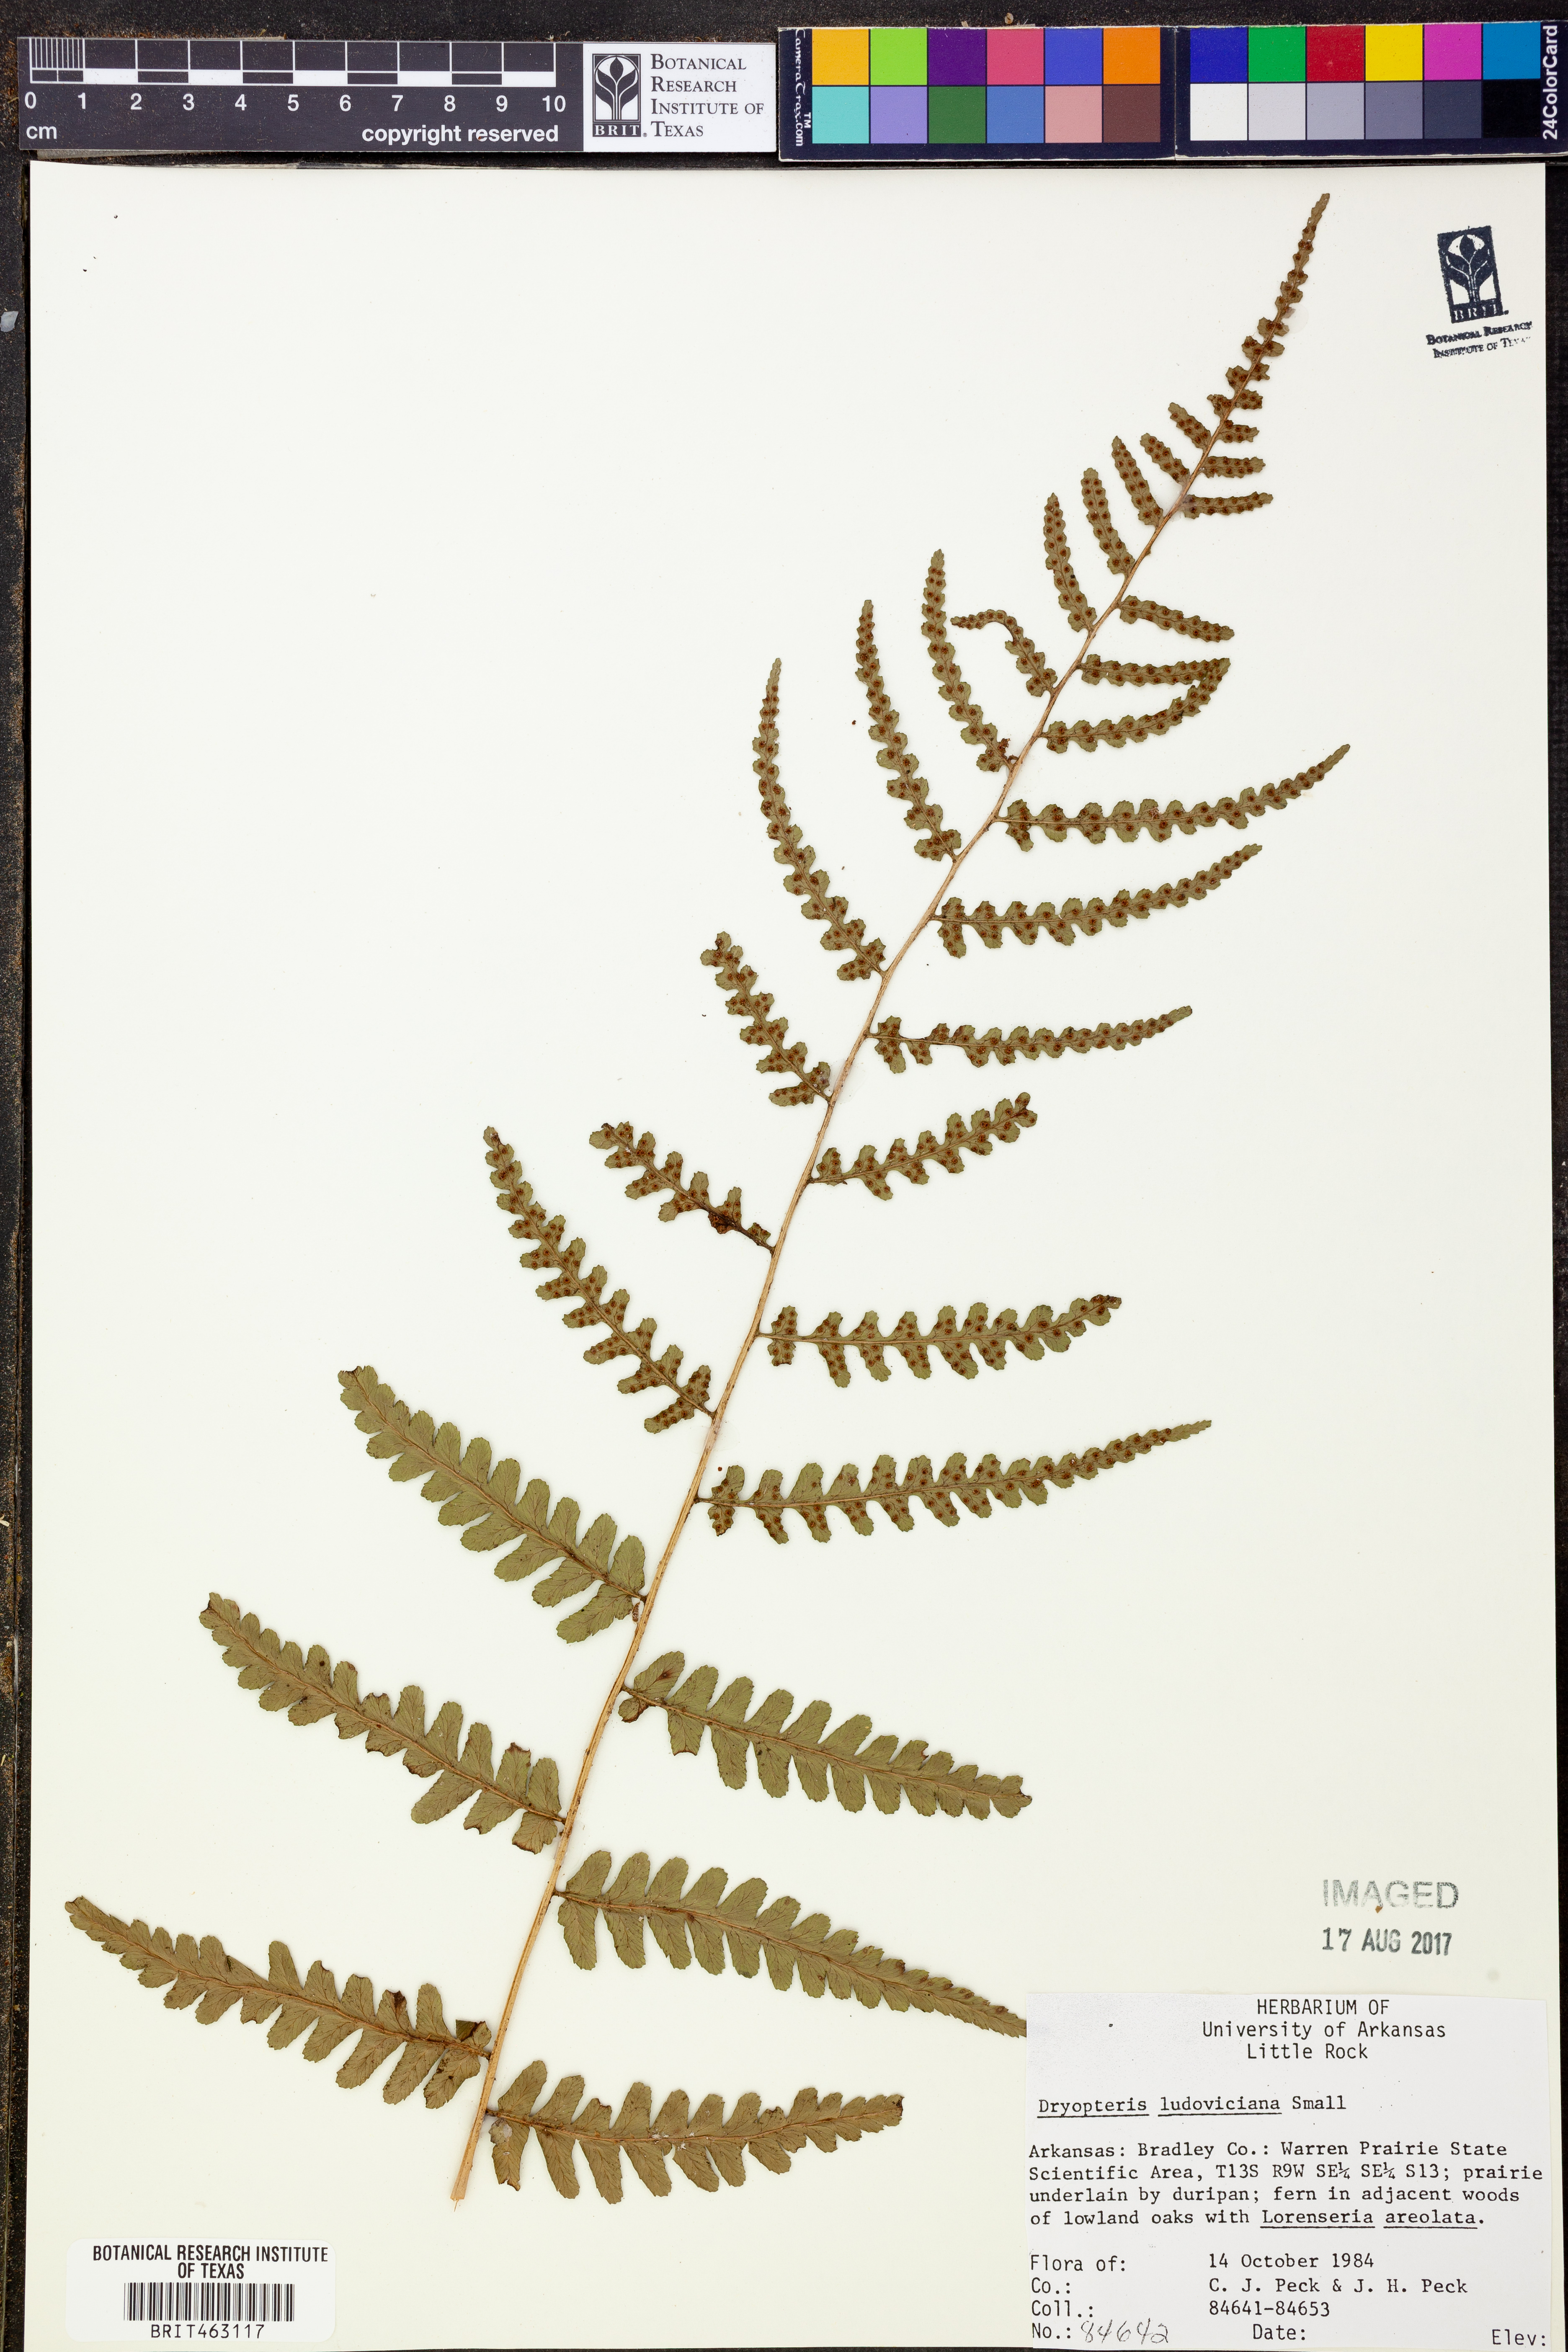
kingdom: Plantae
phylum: Tracheophyta
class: Polypodiopsida
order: Polypodiales
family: Dryopteridaceae
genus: Dryopteris
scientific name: Dryopteris ludoviciana
